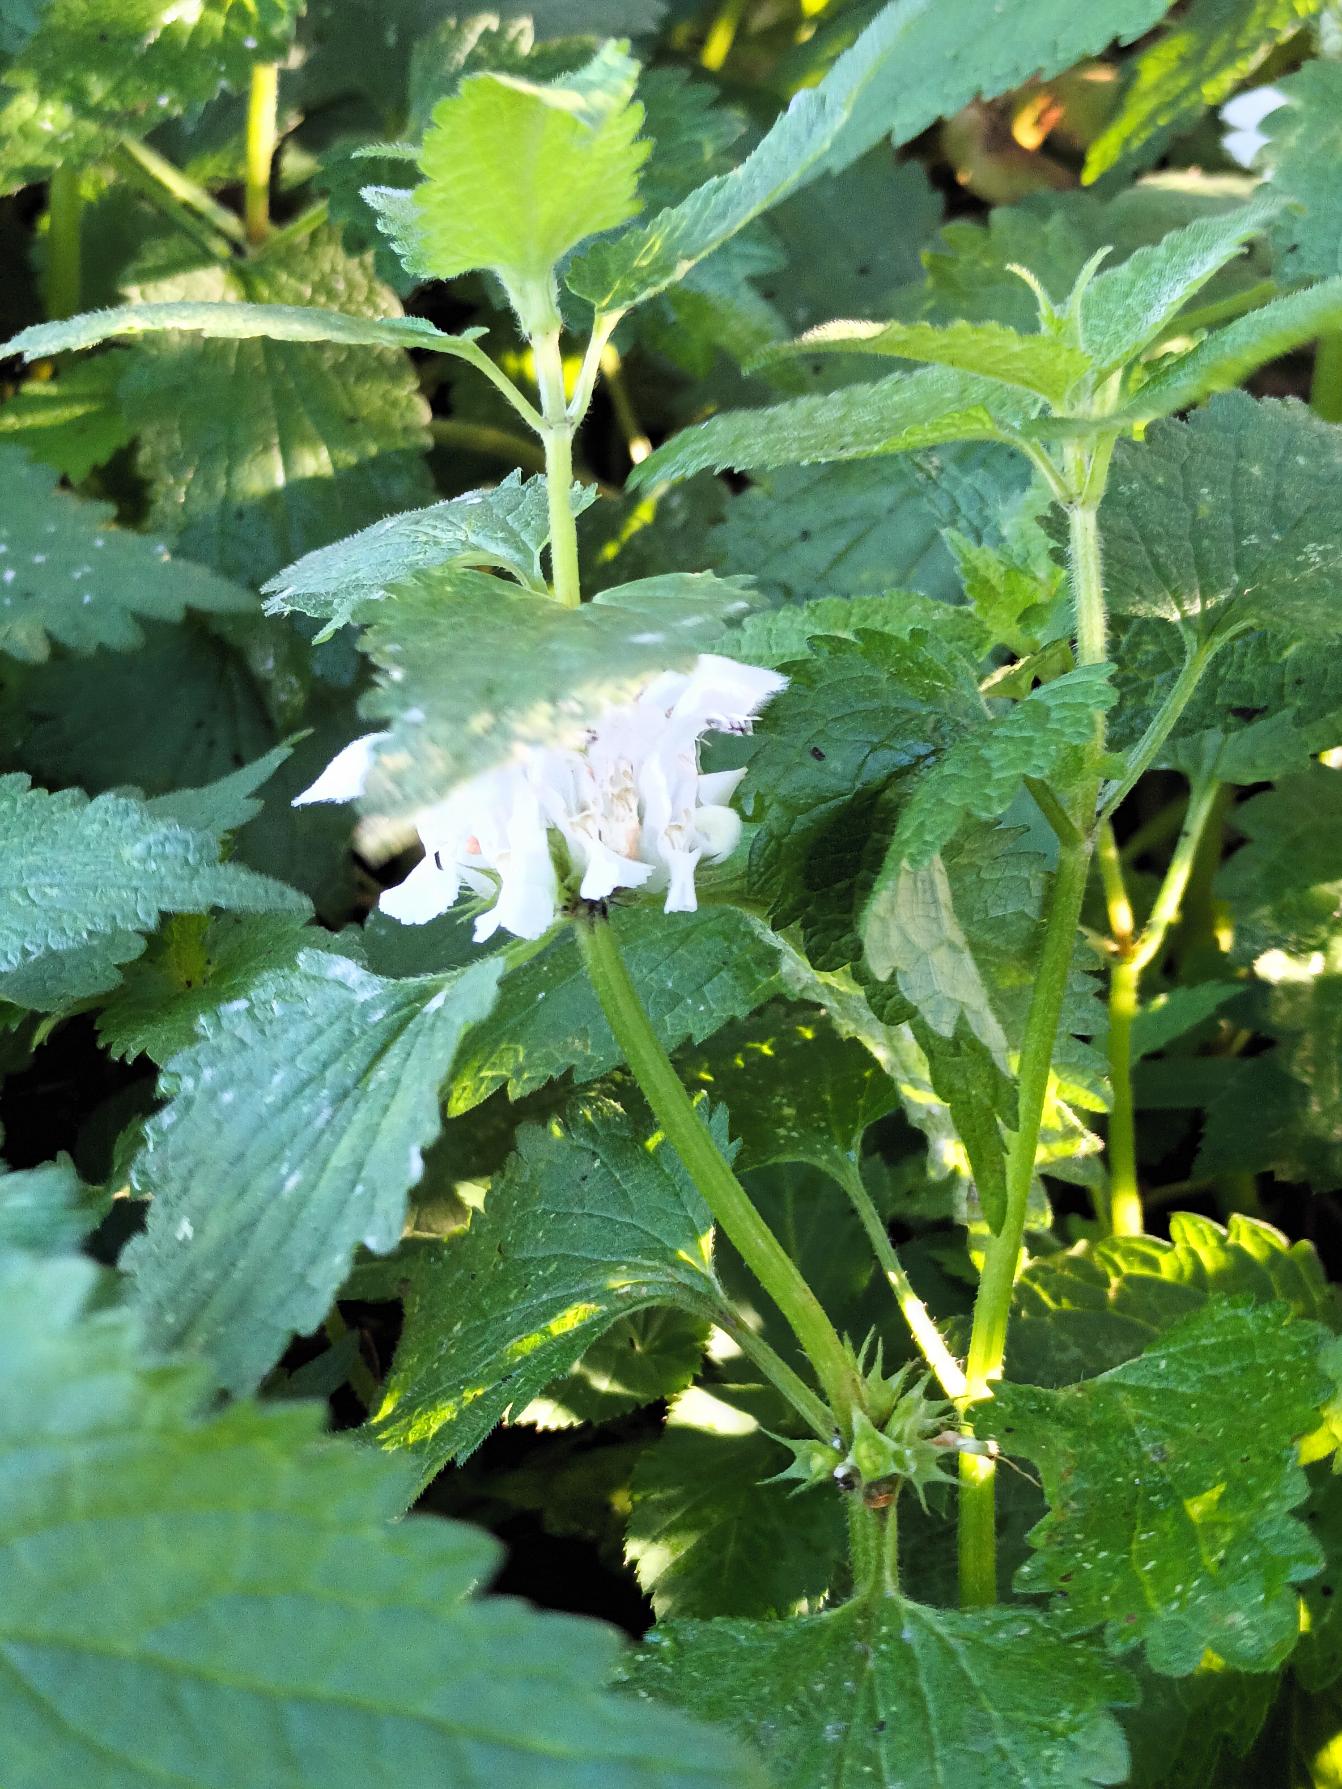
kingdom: Plantae
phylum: Tracheophyta
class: Magnoliopsida
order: Lamiales
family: Lamiaceae
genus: Lamium
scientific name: Lamium album
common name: Døvnælde
